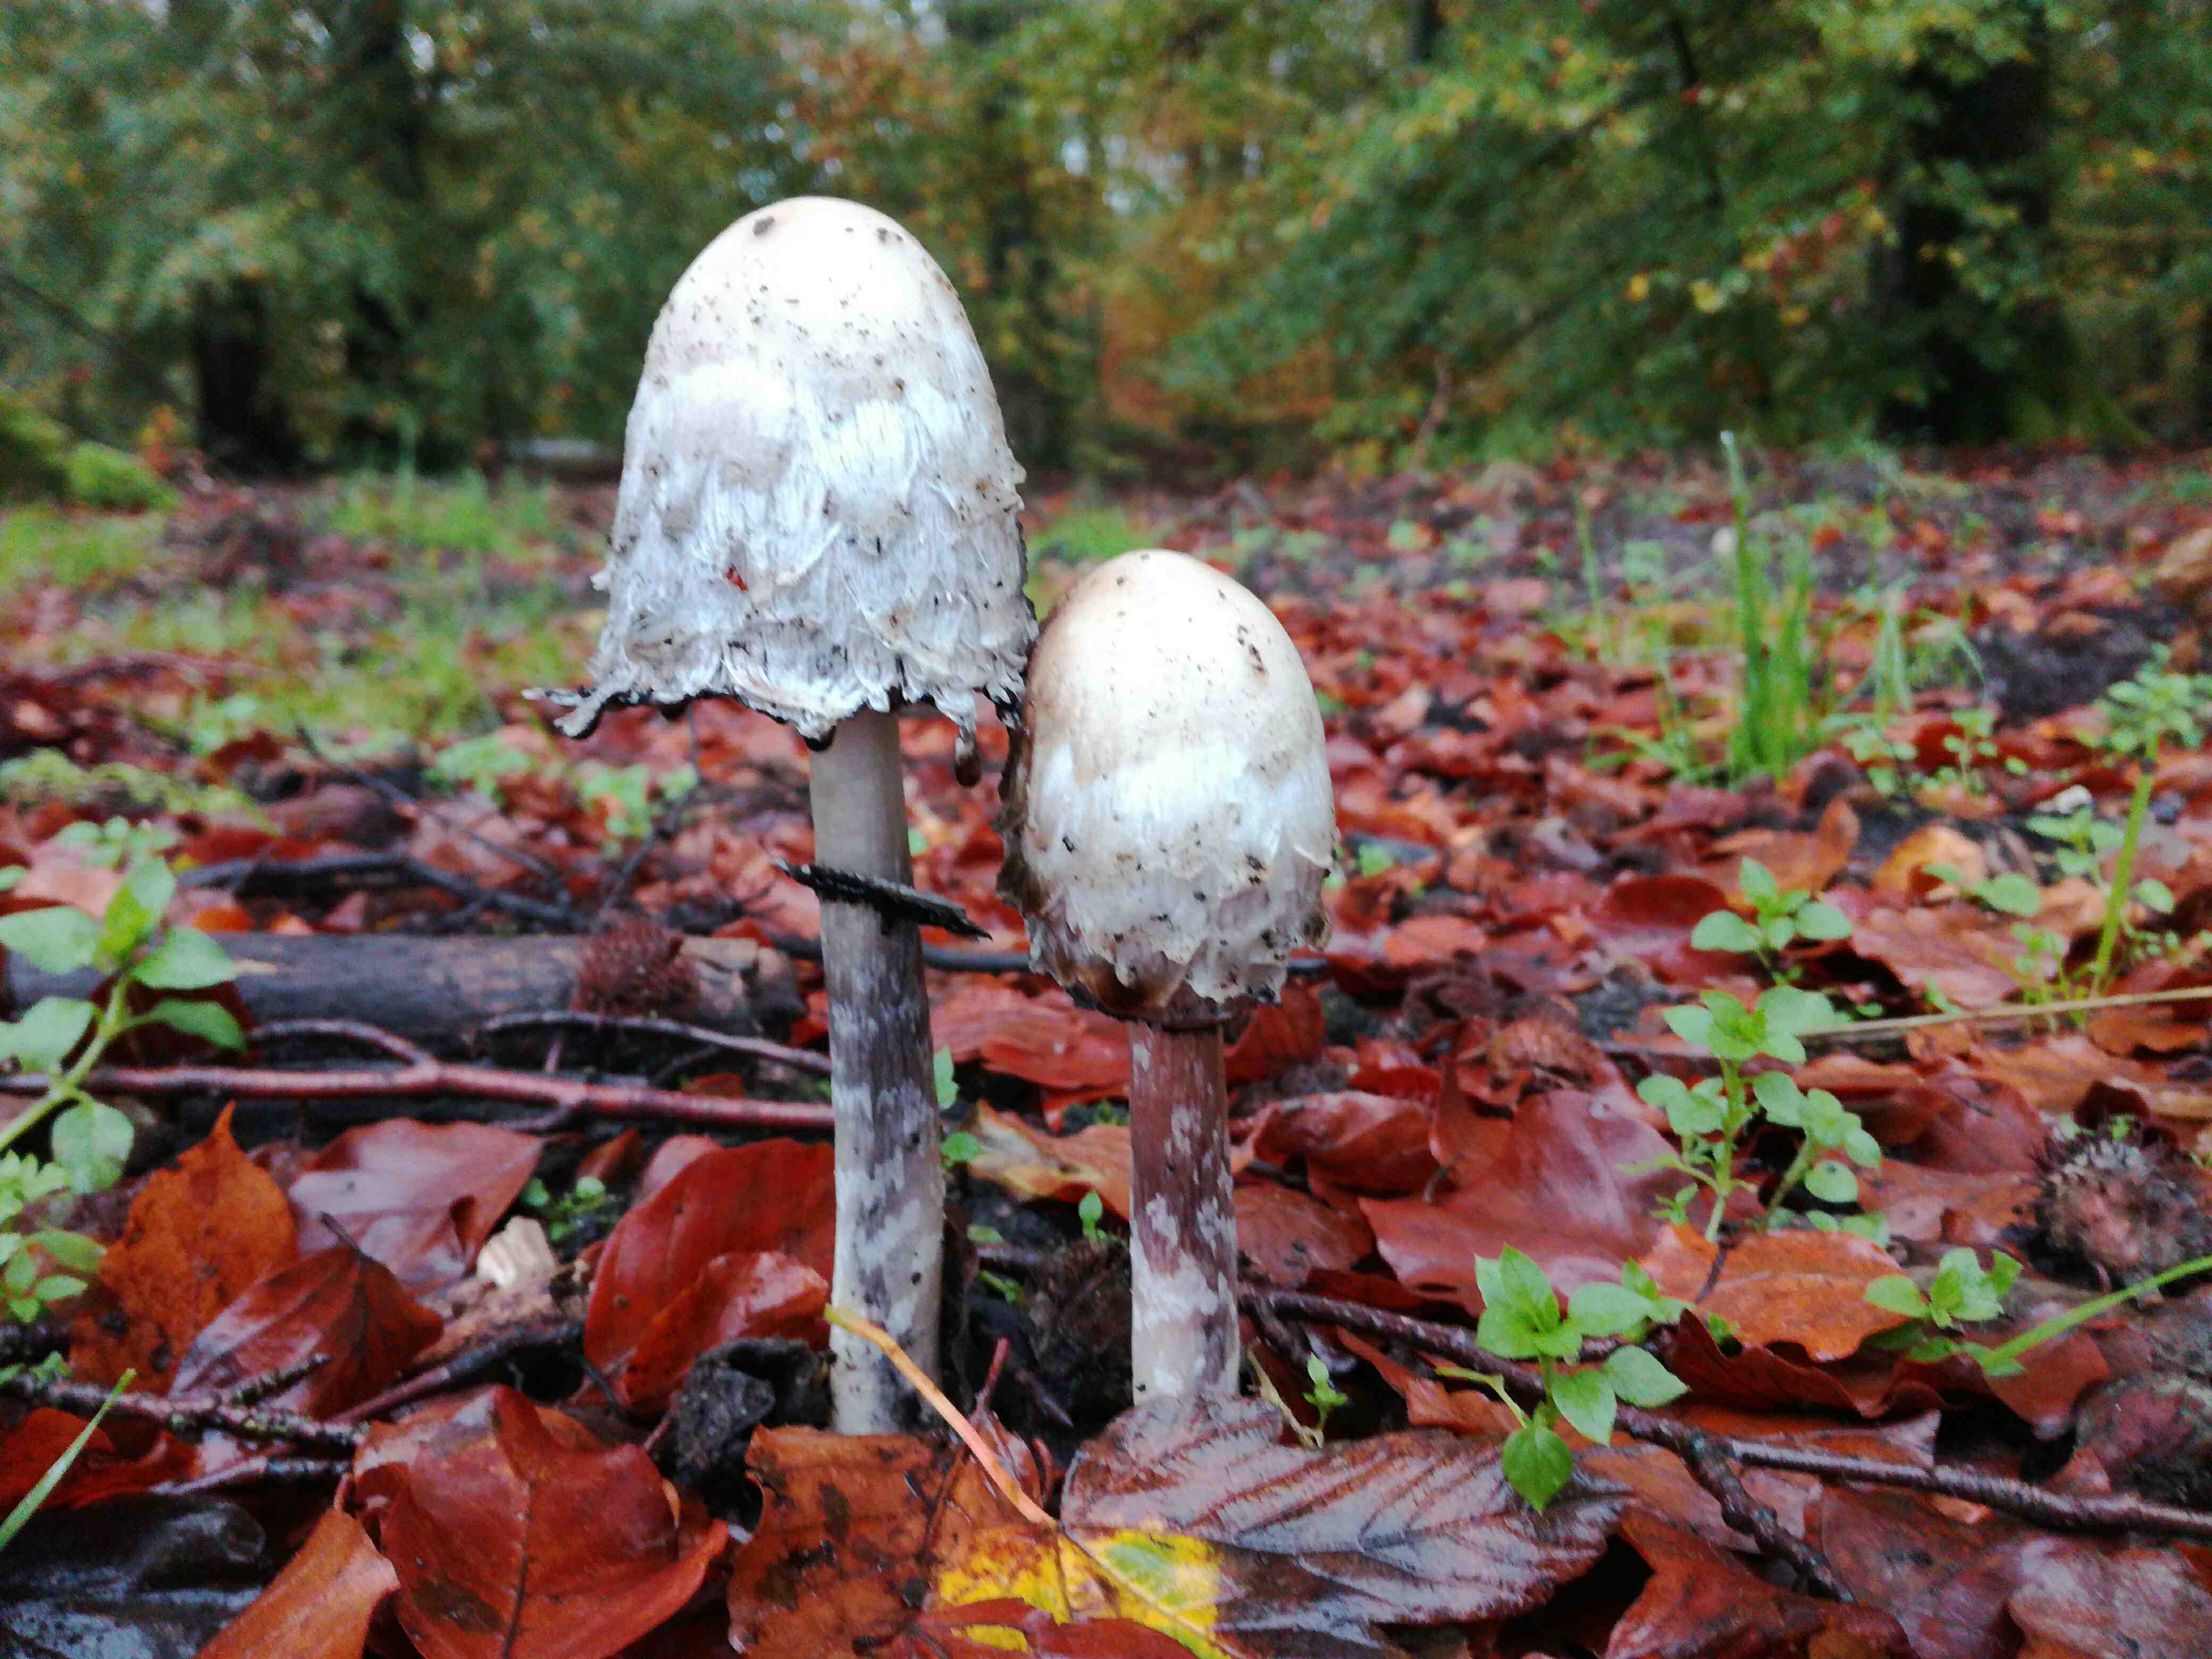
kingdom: Fungi
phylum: Basidiomycota
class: Agaricomycetes
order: Agaricales
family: Agaricaceae
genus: Coprinus
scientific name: Coprinus comatus
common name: stor parykhat
